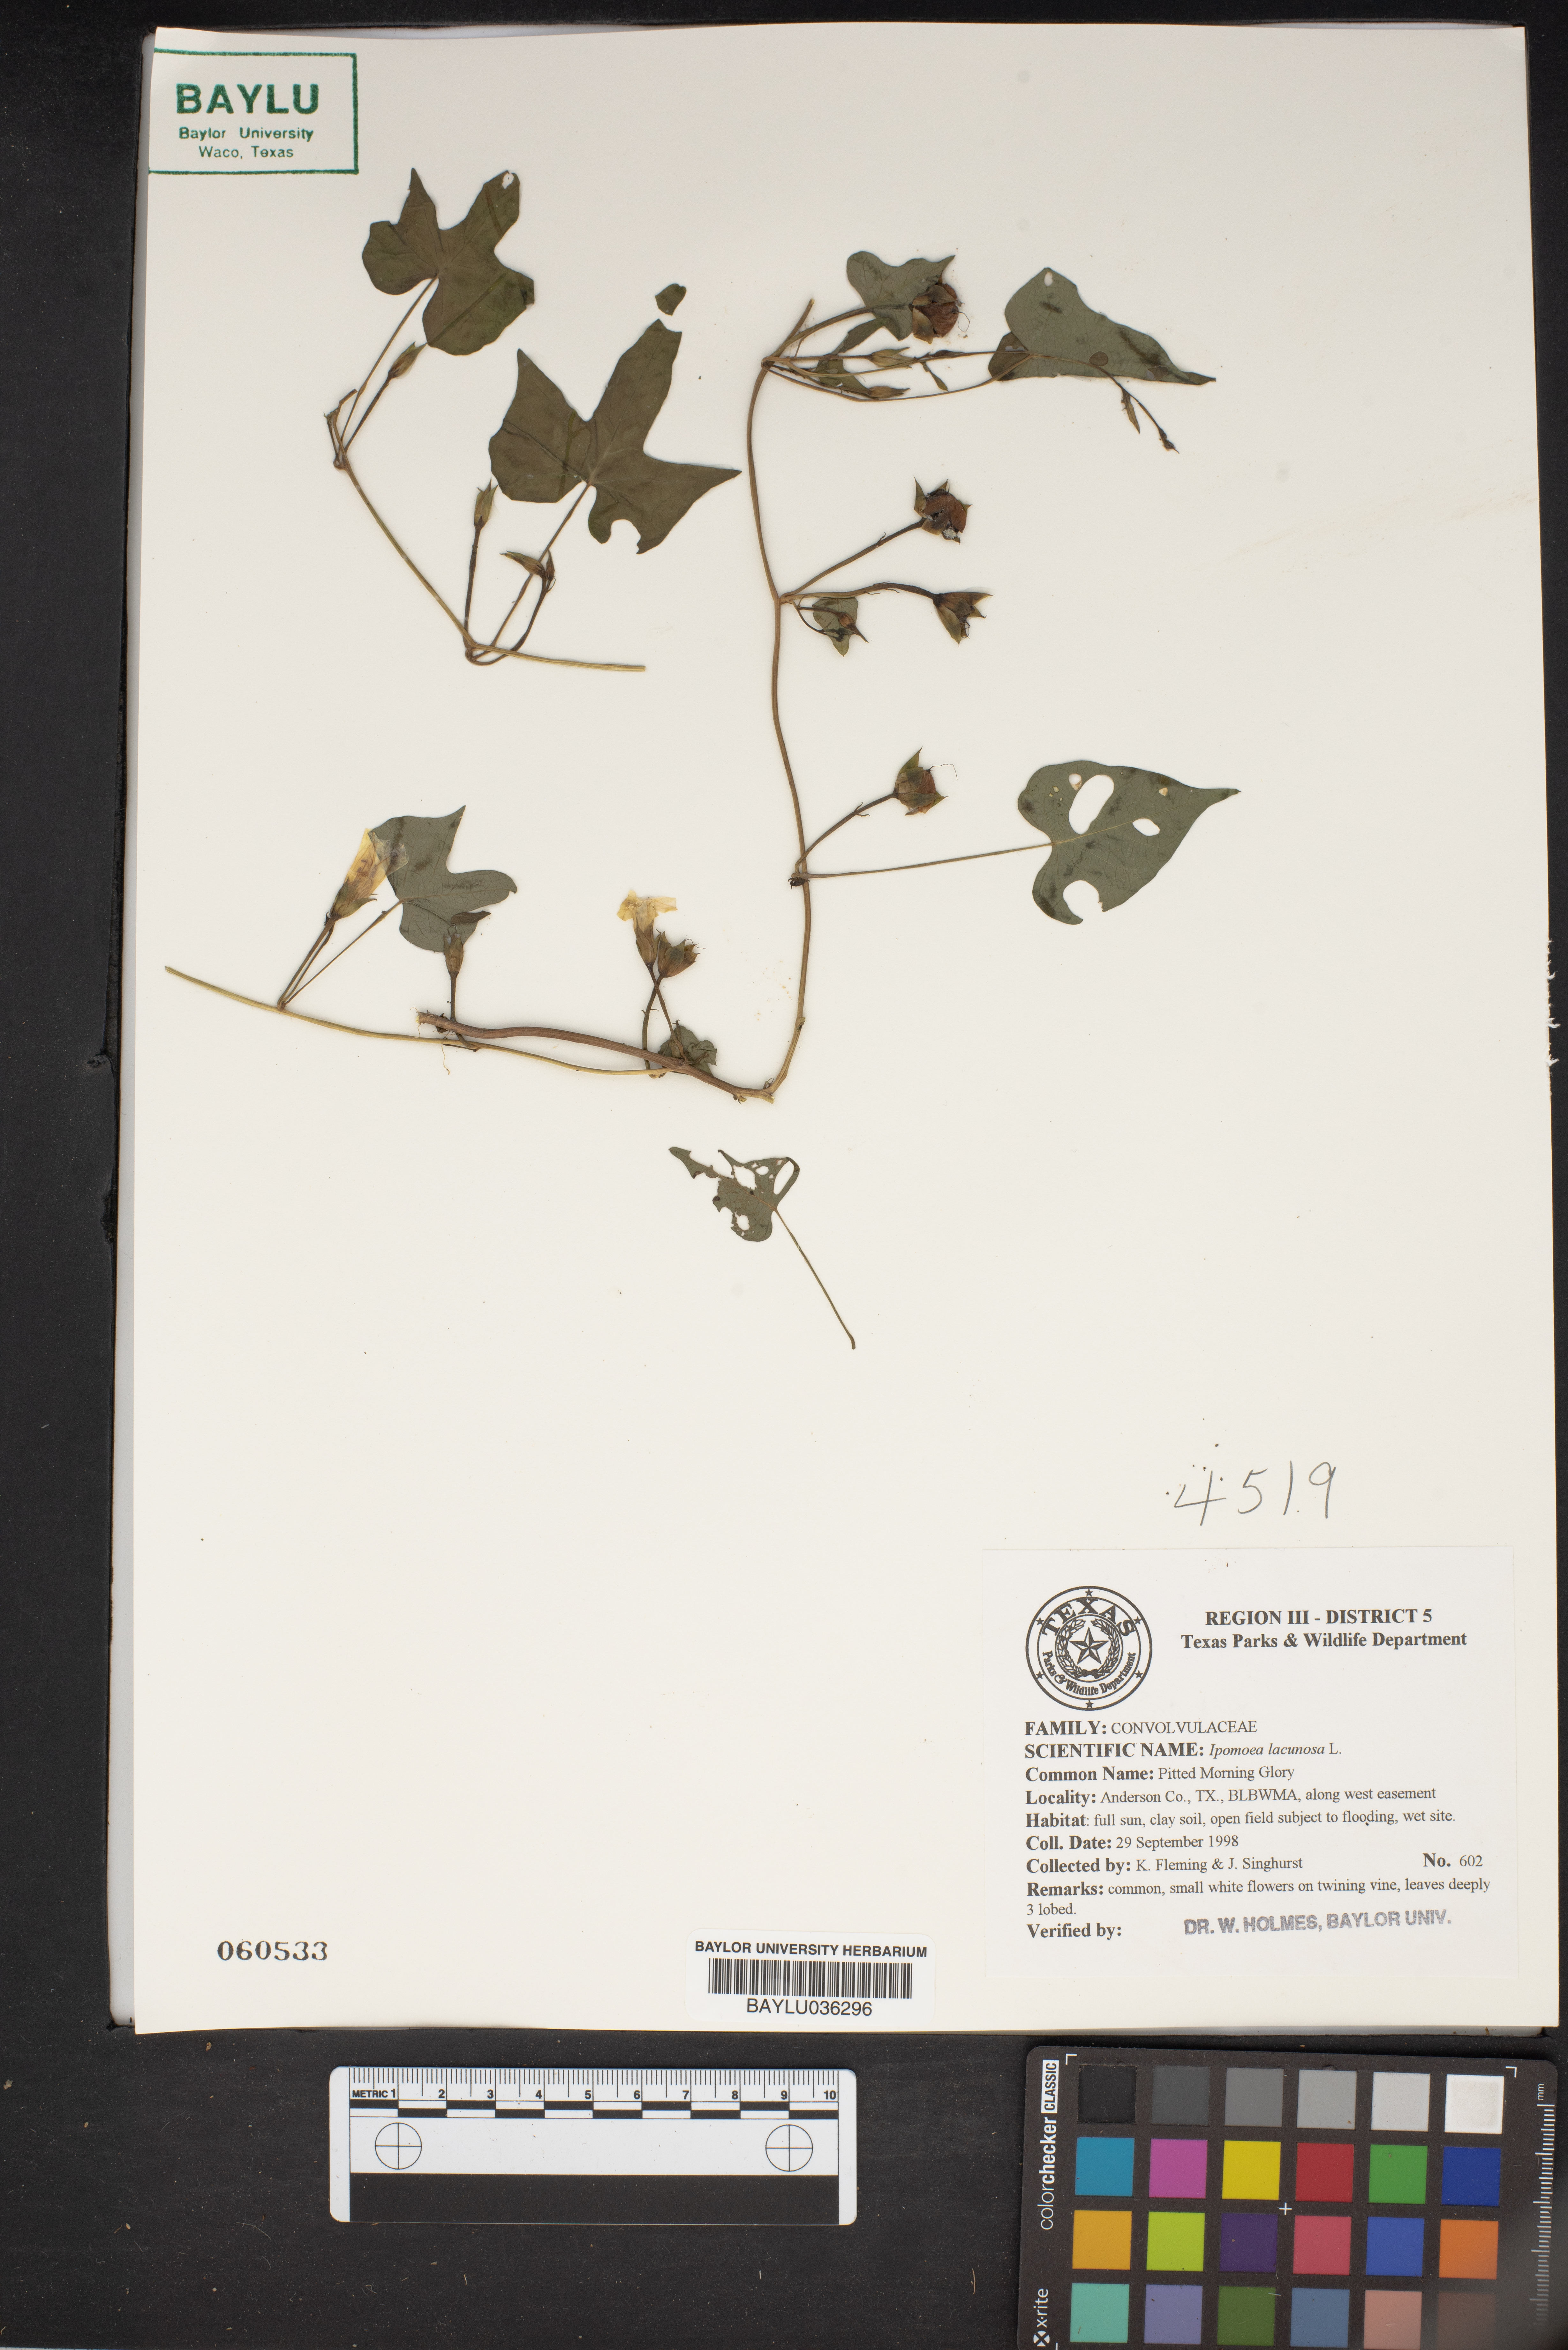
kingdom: Plantae
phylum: Tracheophyta
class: Magnoliopsida
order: Solanales
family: Convolvulaceae
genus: Ipomoea
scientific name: Ipomoea lacunosa
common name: White morning-glory
